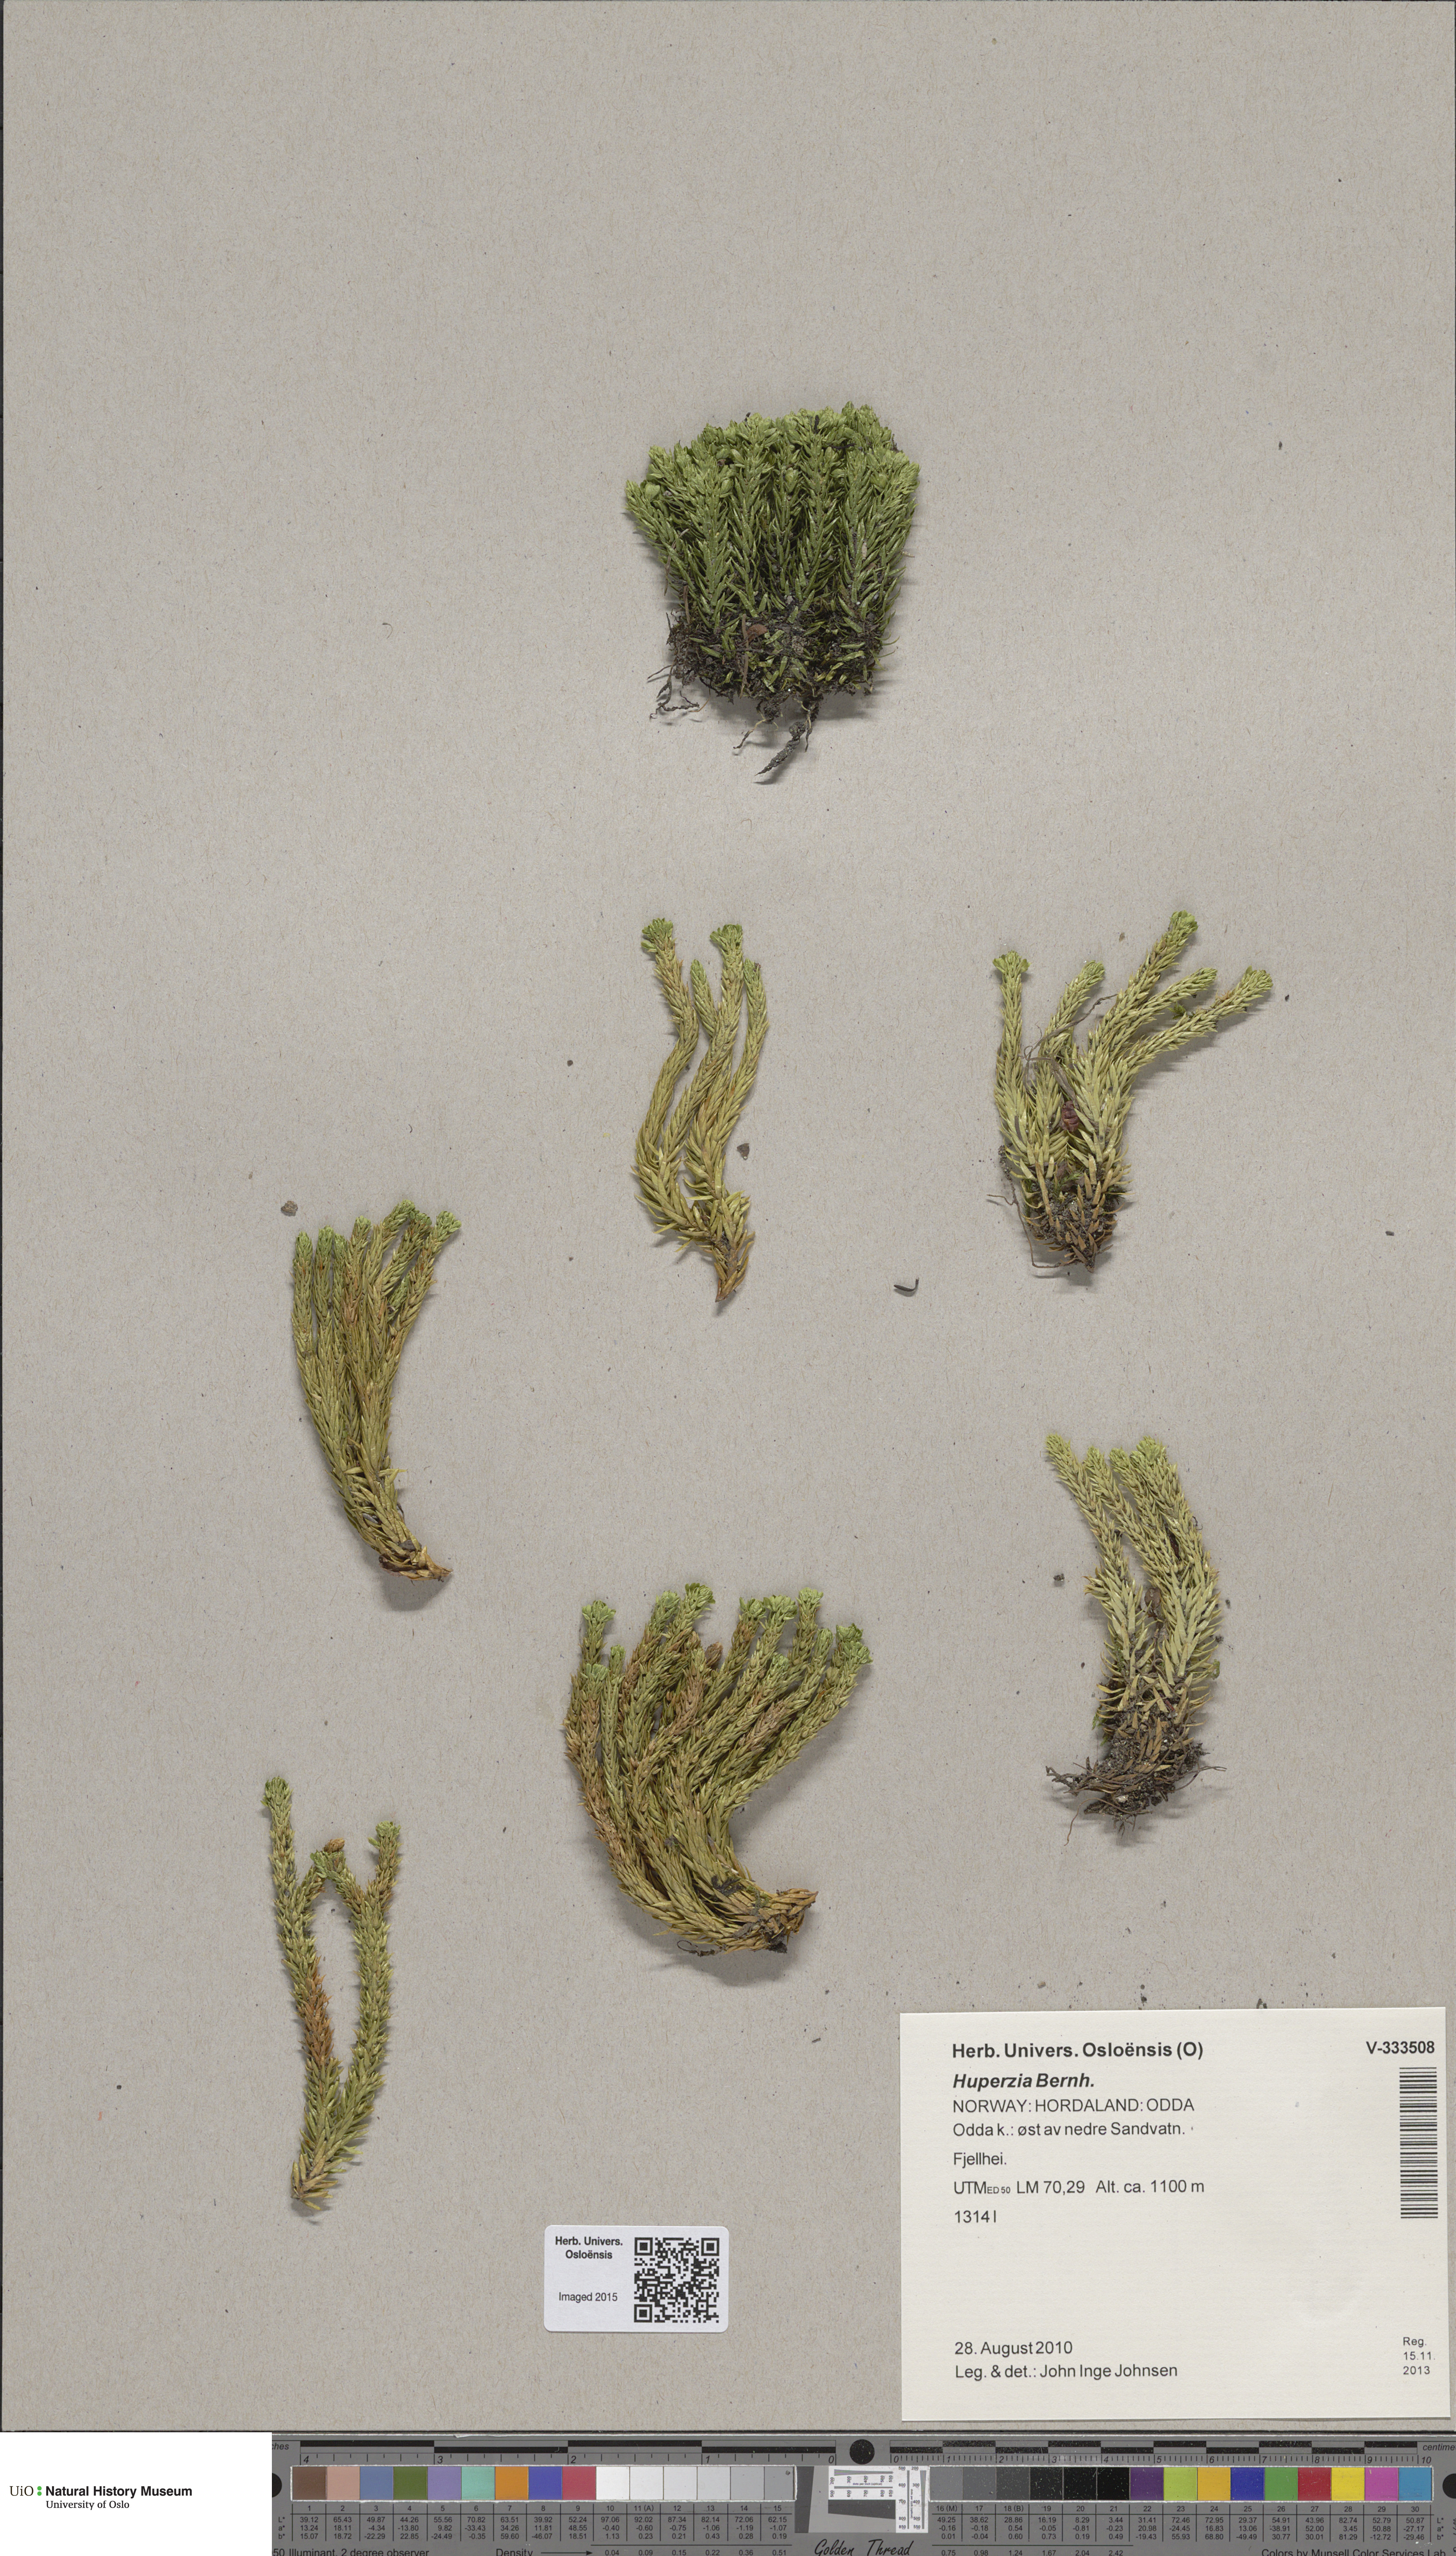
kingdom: Plantae
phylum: Tracheophyta
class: Lycopodiopsida
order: Lycopodiales
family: Lycopodiaceae
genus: Huperzia
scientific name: Huperzia selago
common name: Northern firmoss
